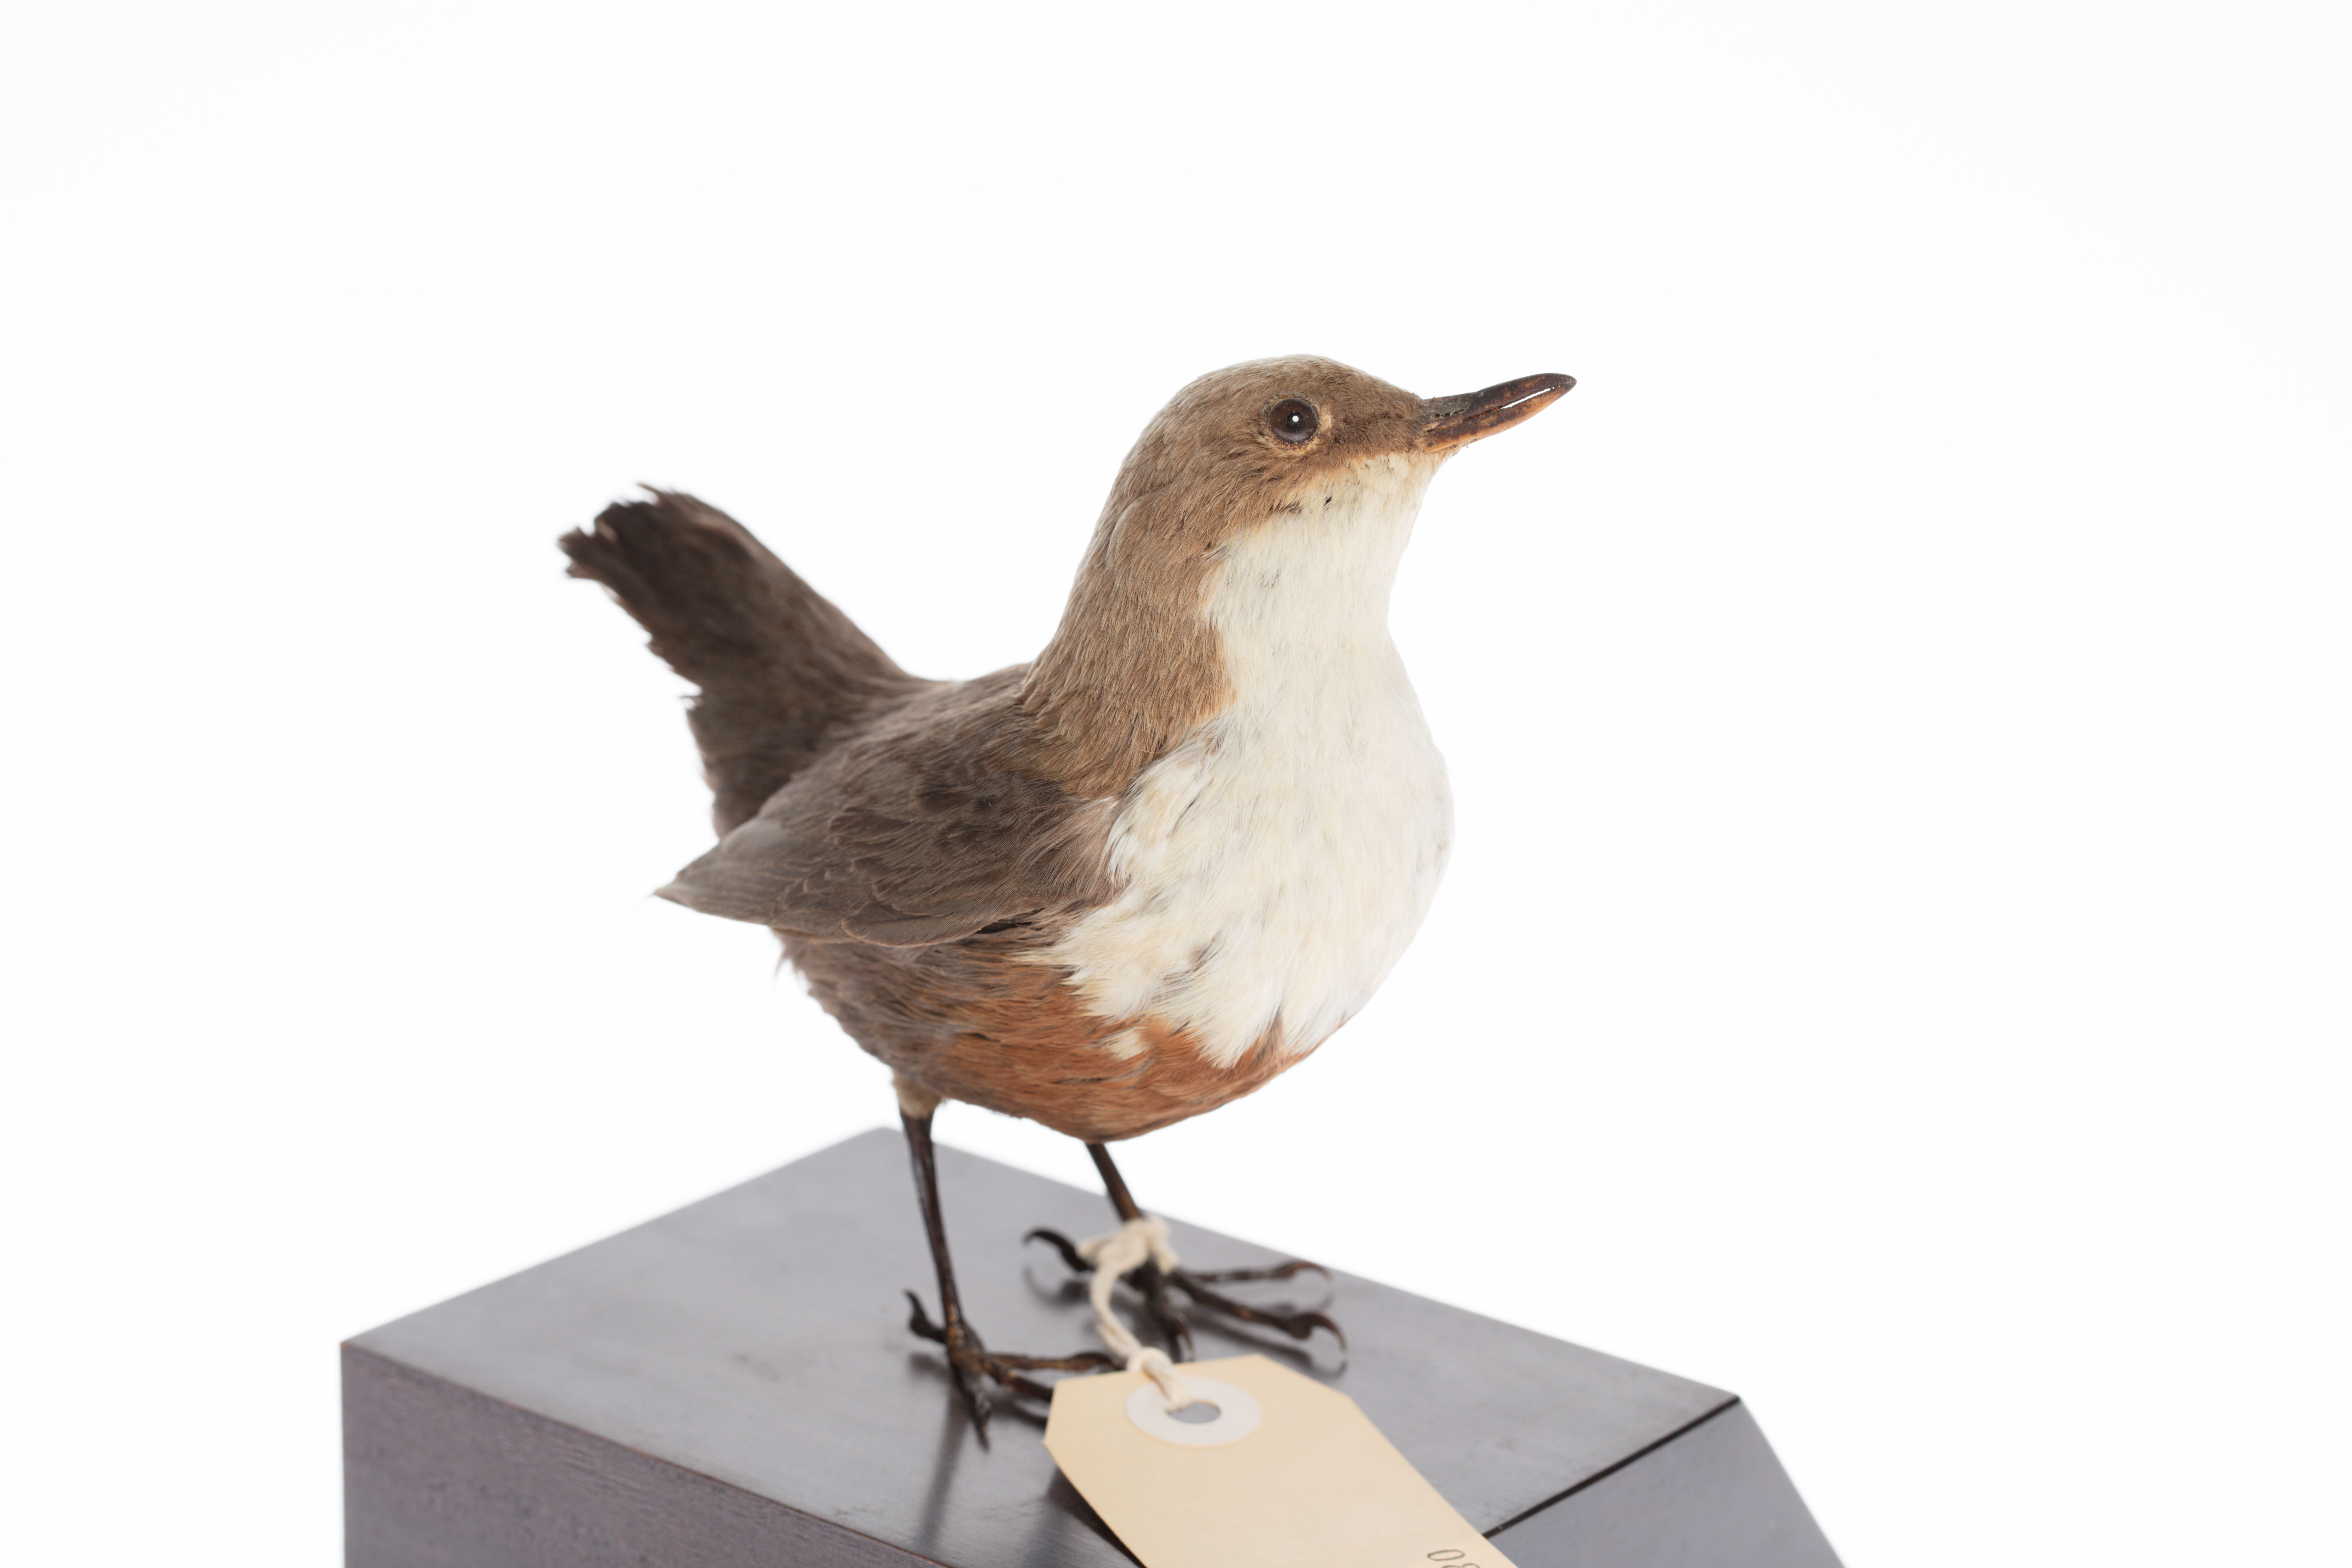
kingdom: Animalia
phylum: Chordata
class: Aves
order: Passeriformes
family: Cinclidae
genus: Cinclus
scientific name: Cinclus cinclus
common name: White-throated dipper
